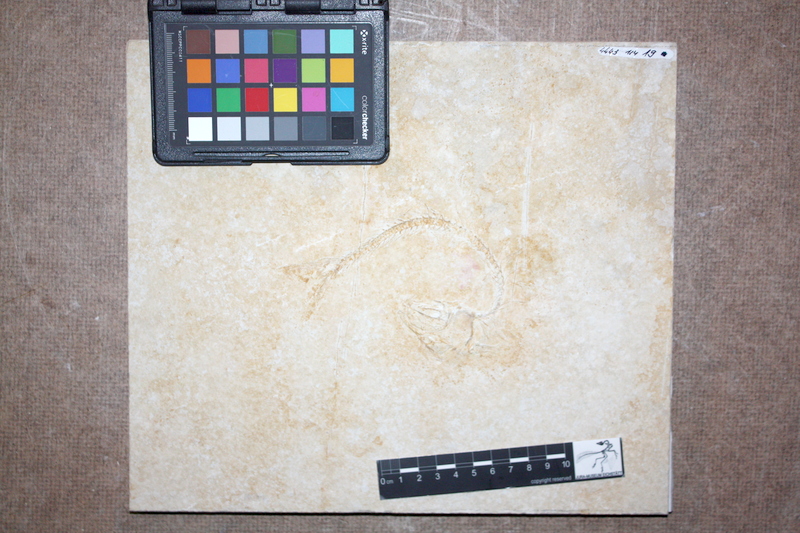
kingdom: Animalia
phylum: Chordata
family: Ascalaboidae
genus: Tharsis
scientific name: Tharsis dubius
